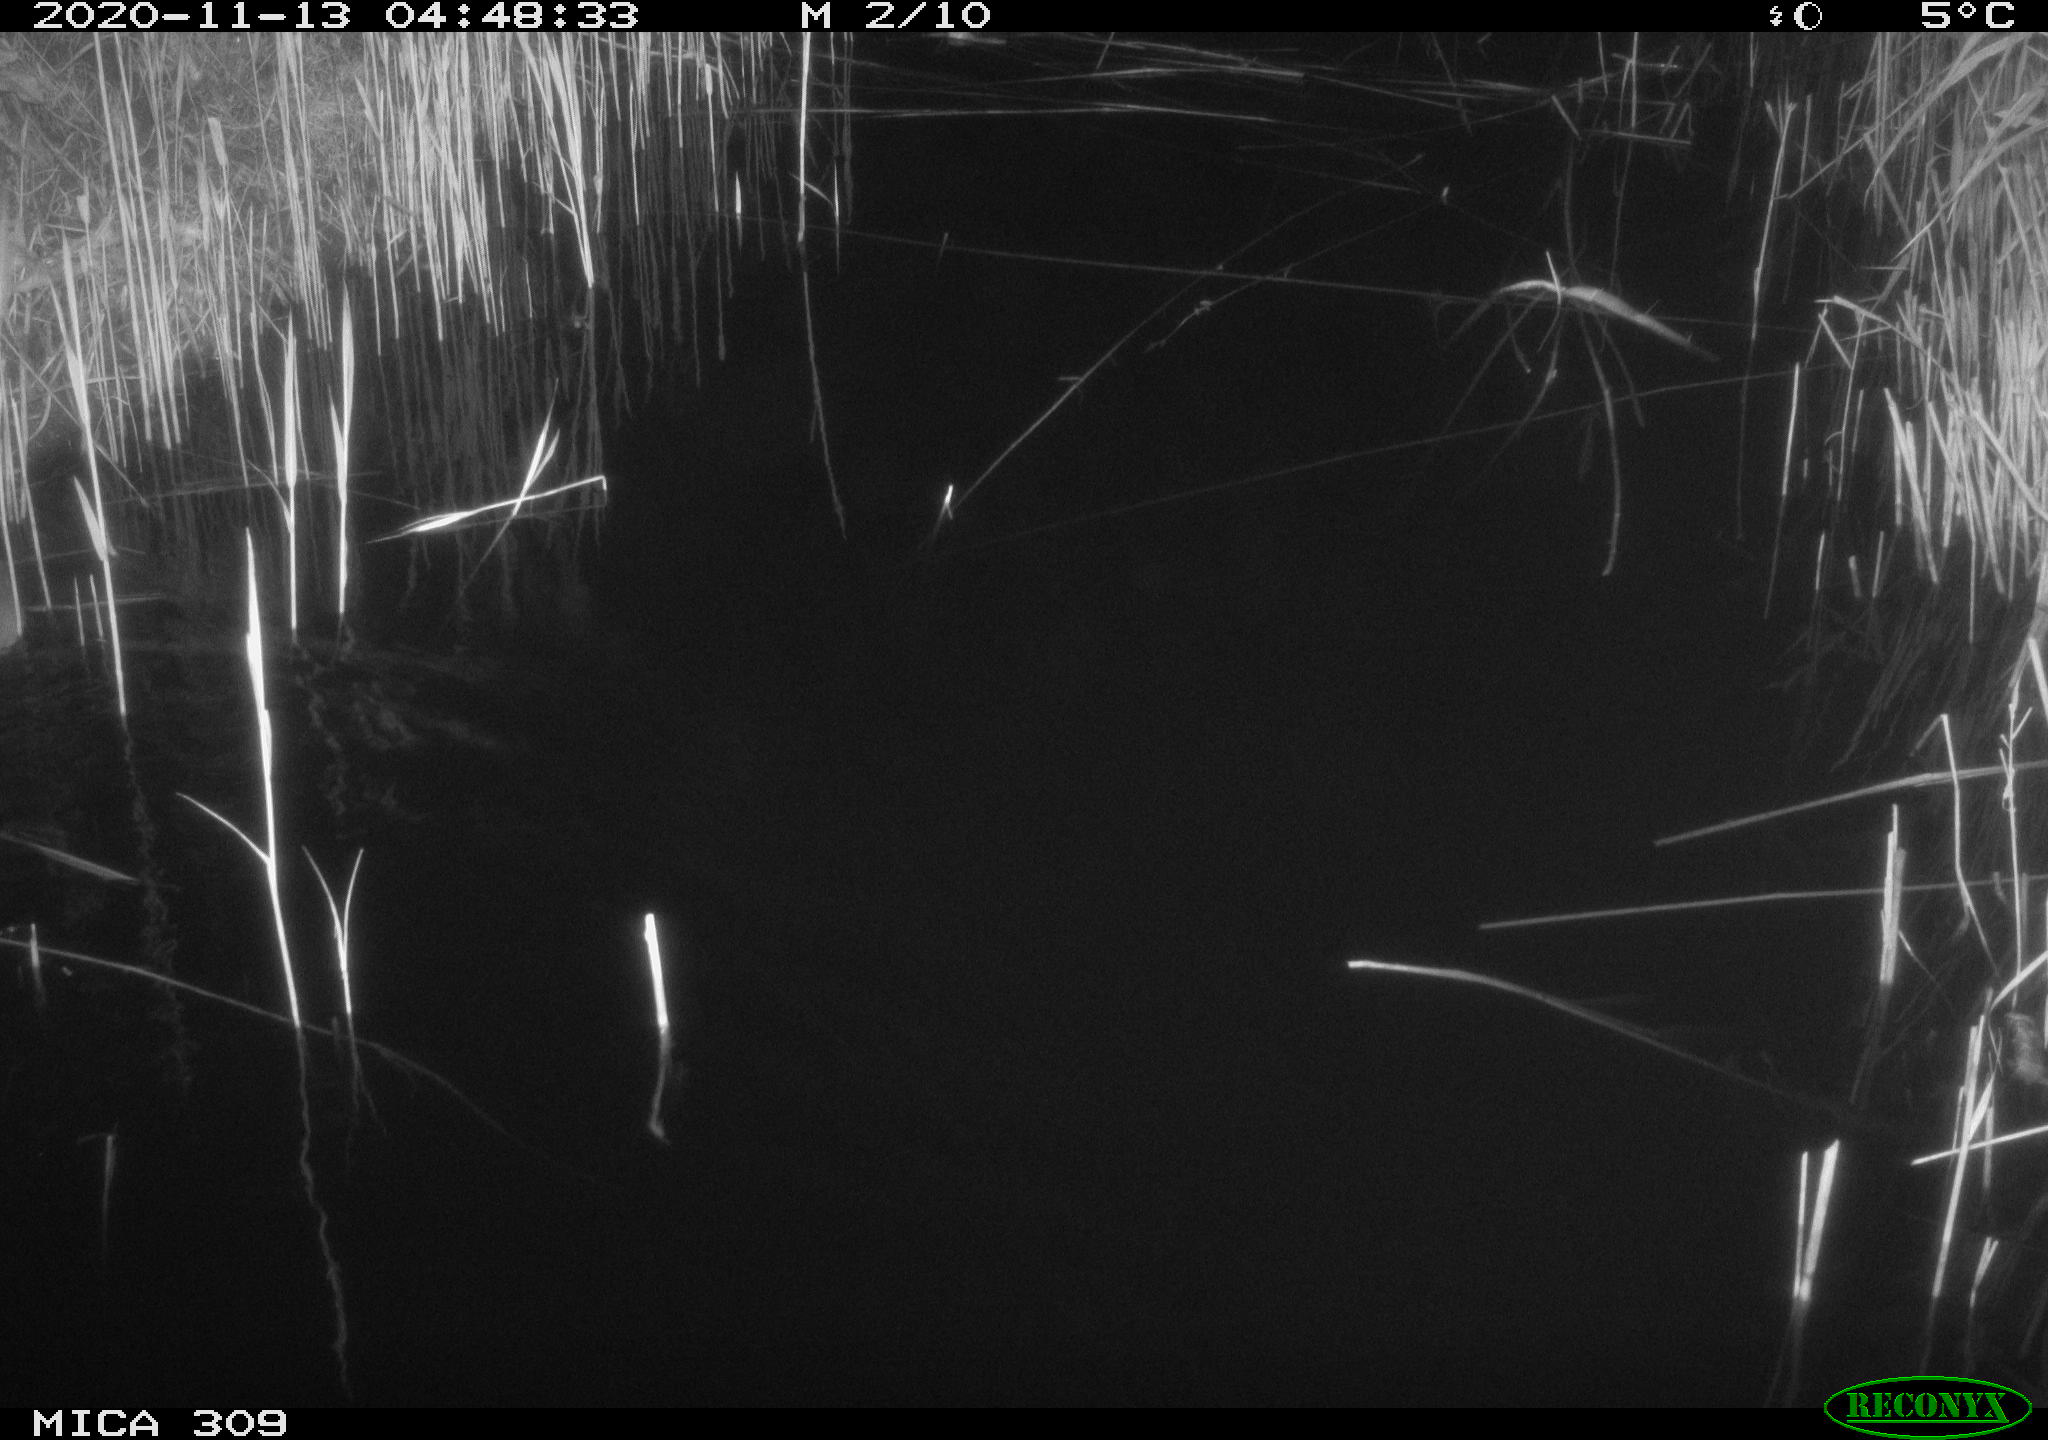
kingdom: Animalia
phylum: Chordata
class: Mammalia
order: Rodentia
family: Muridae
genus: Rattus
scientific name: Rattus norvegicus
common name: Brown rat
